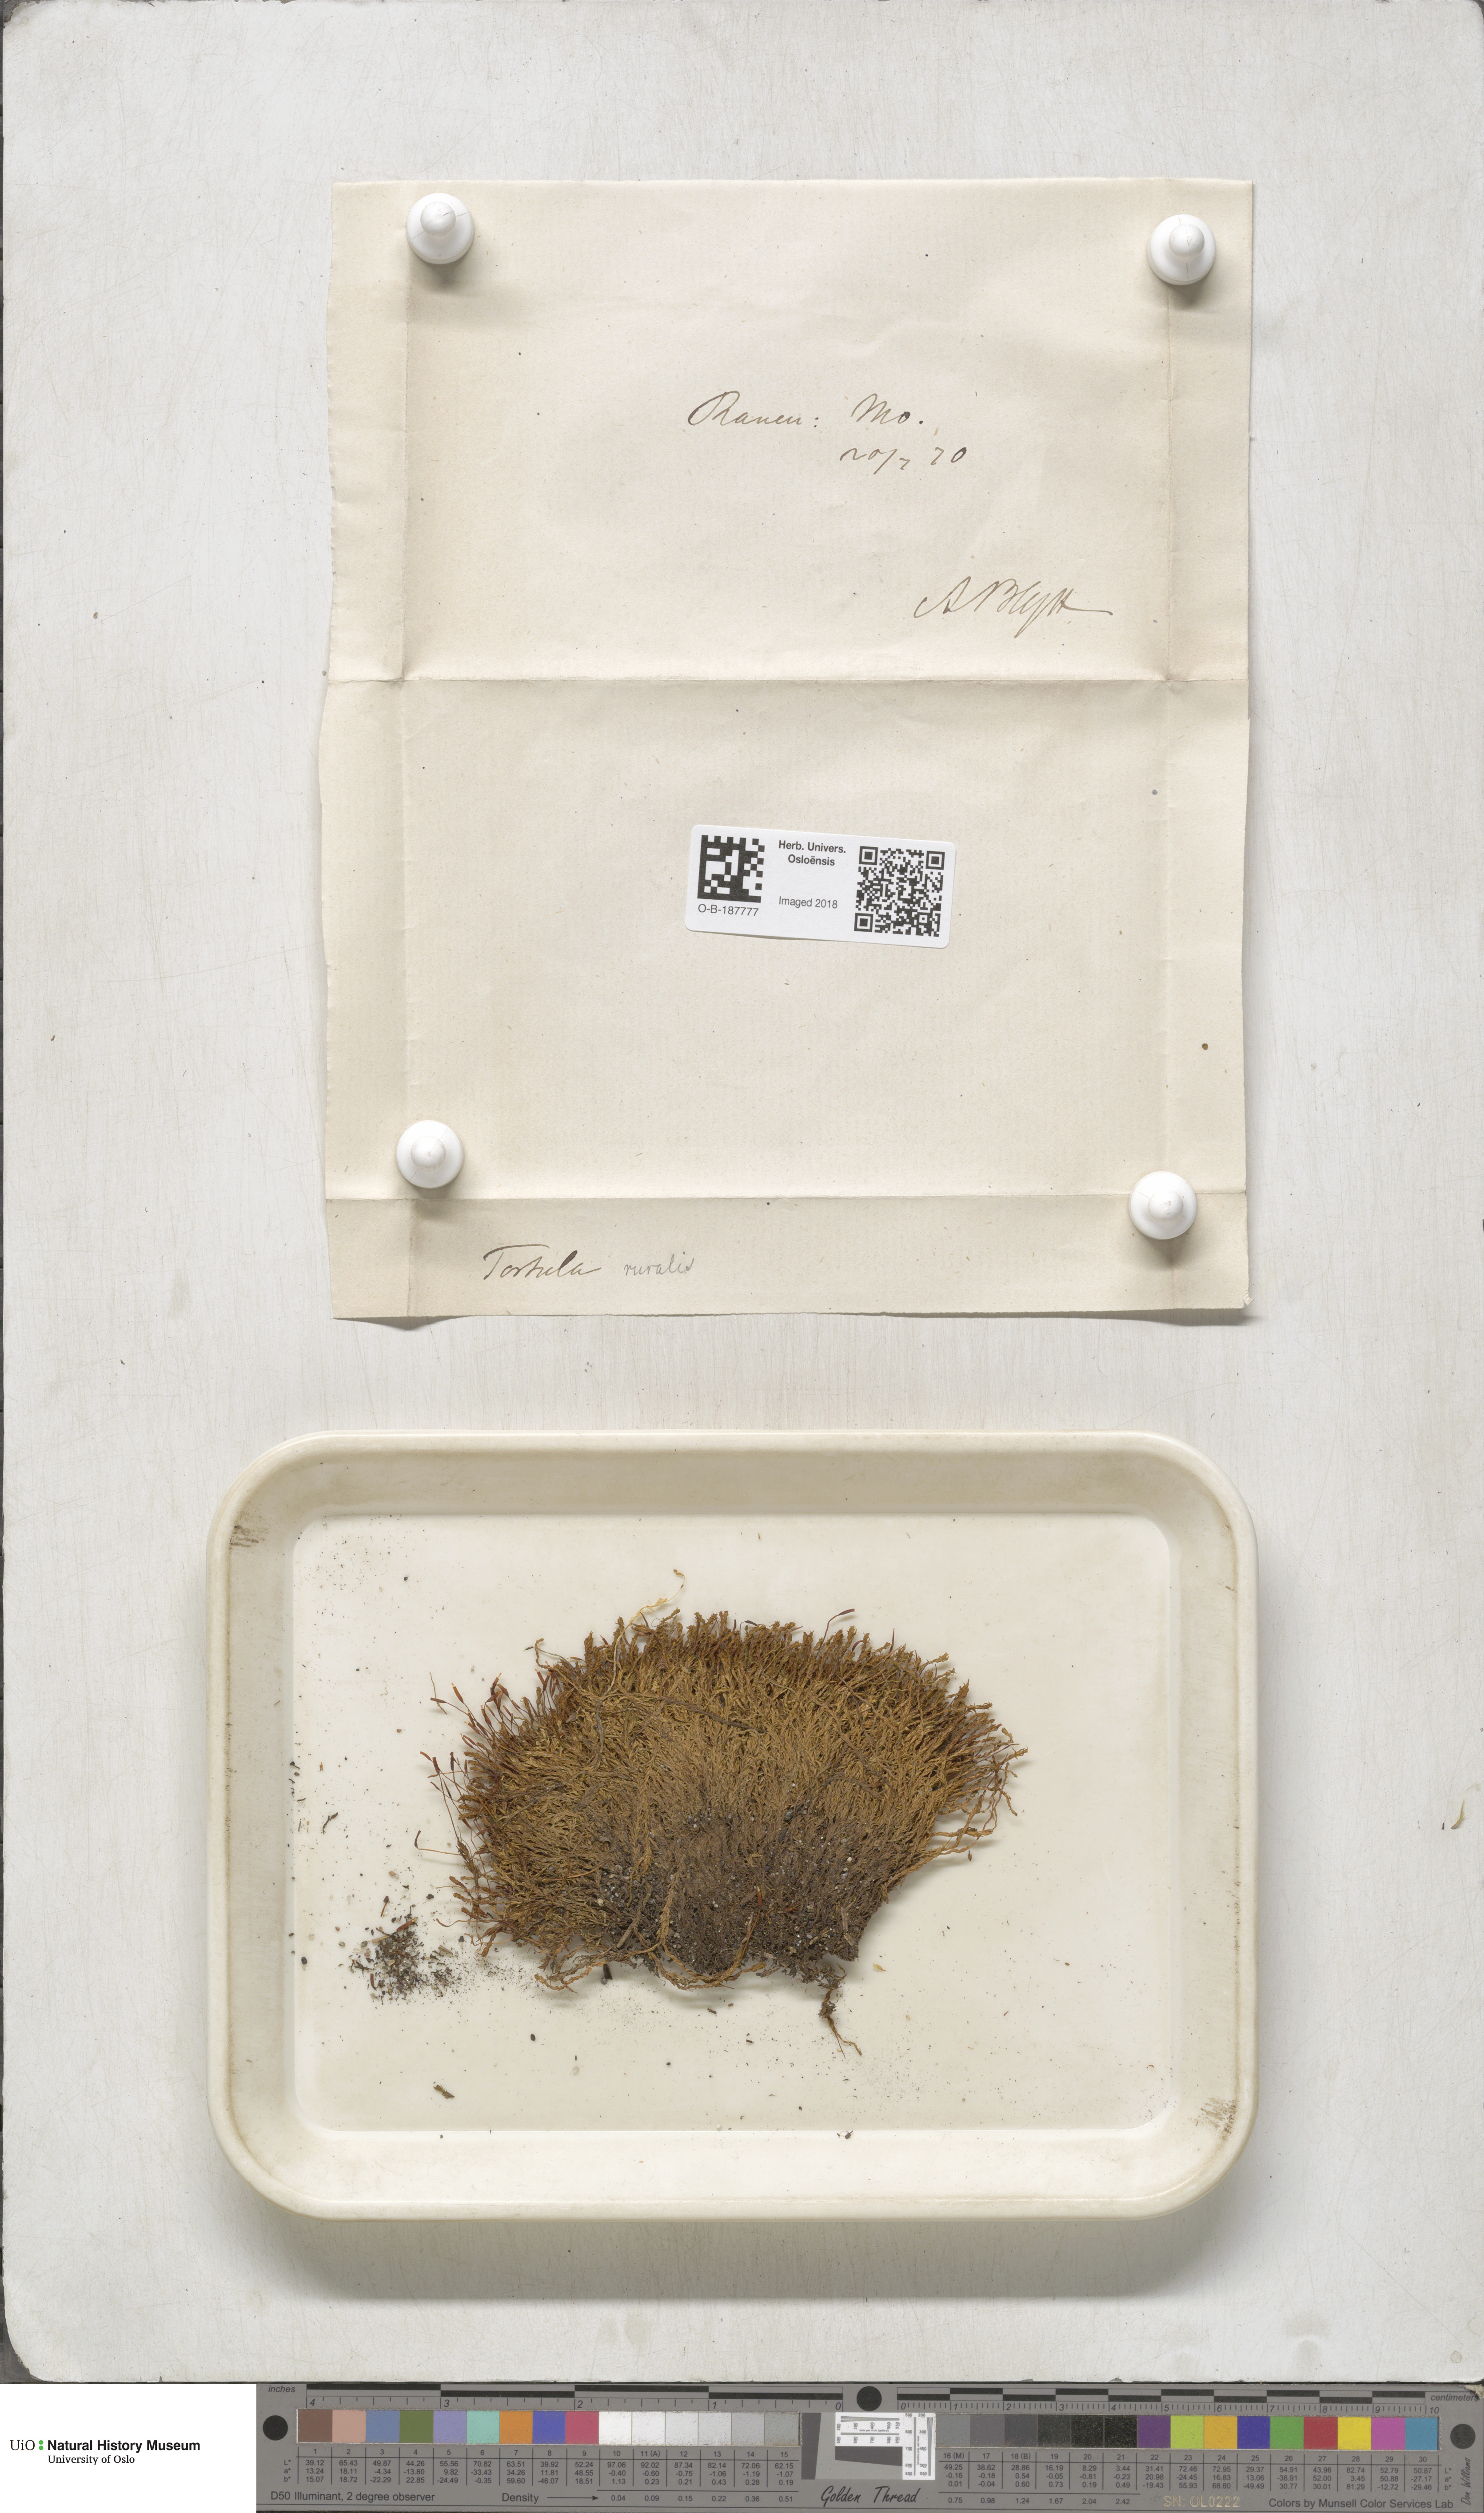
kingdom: Plantae
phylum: Bryophyta
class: Bryopsida
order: Pottiales
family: Pottiaceae
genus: Syntrichia
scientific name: Syntrichia ruralis
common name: Sidewalk screw moss
